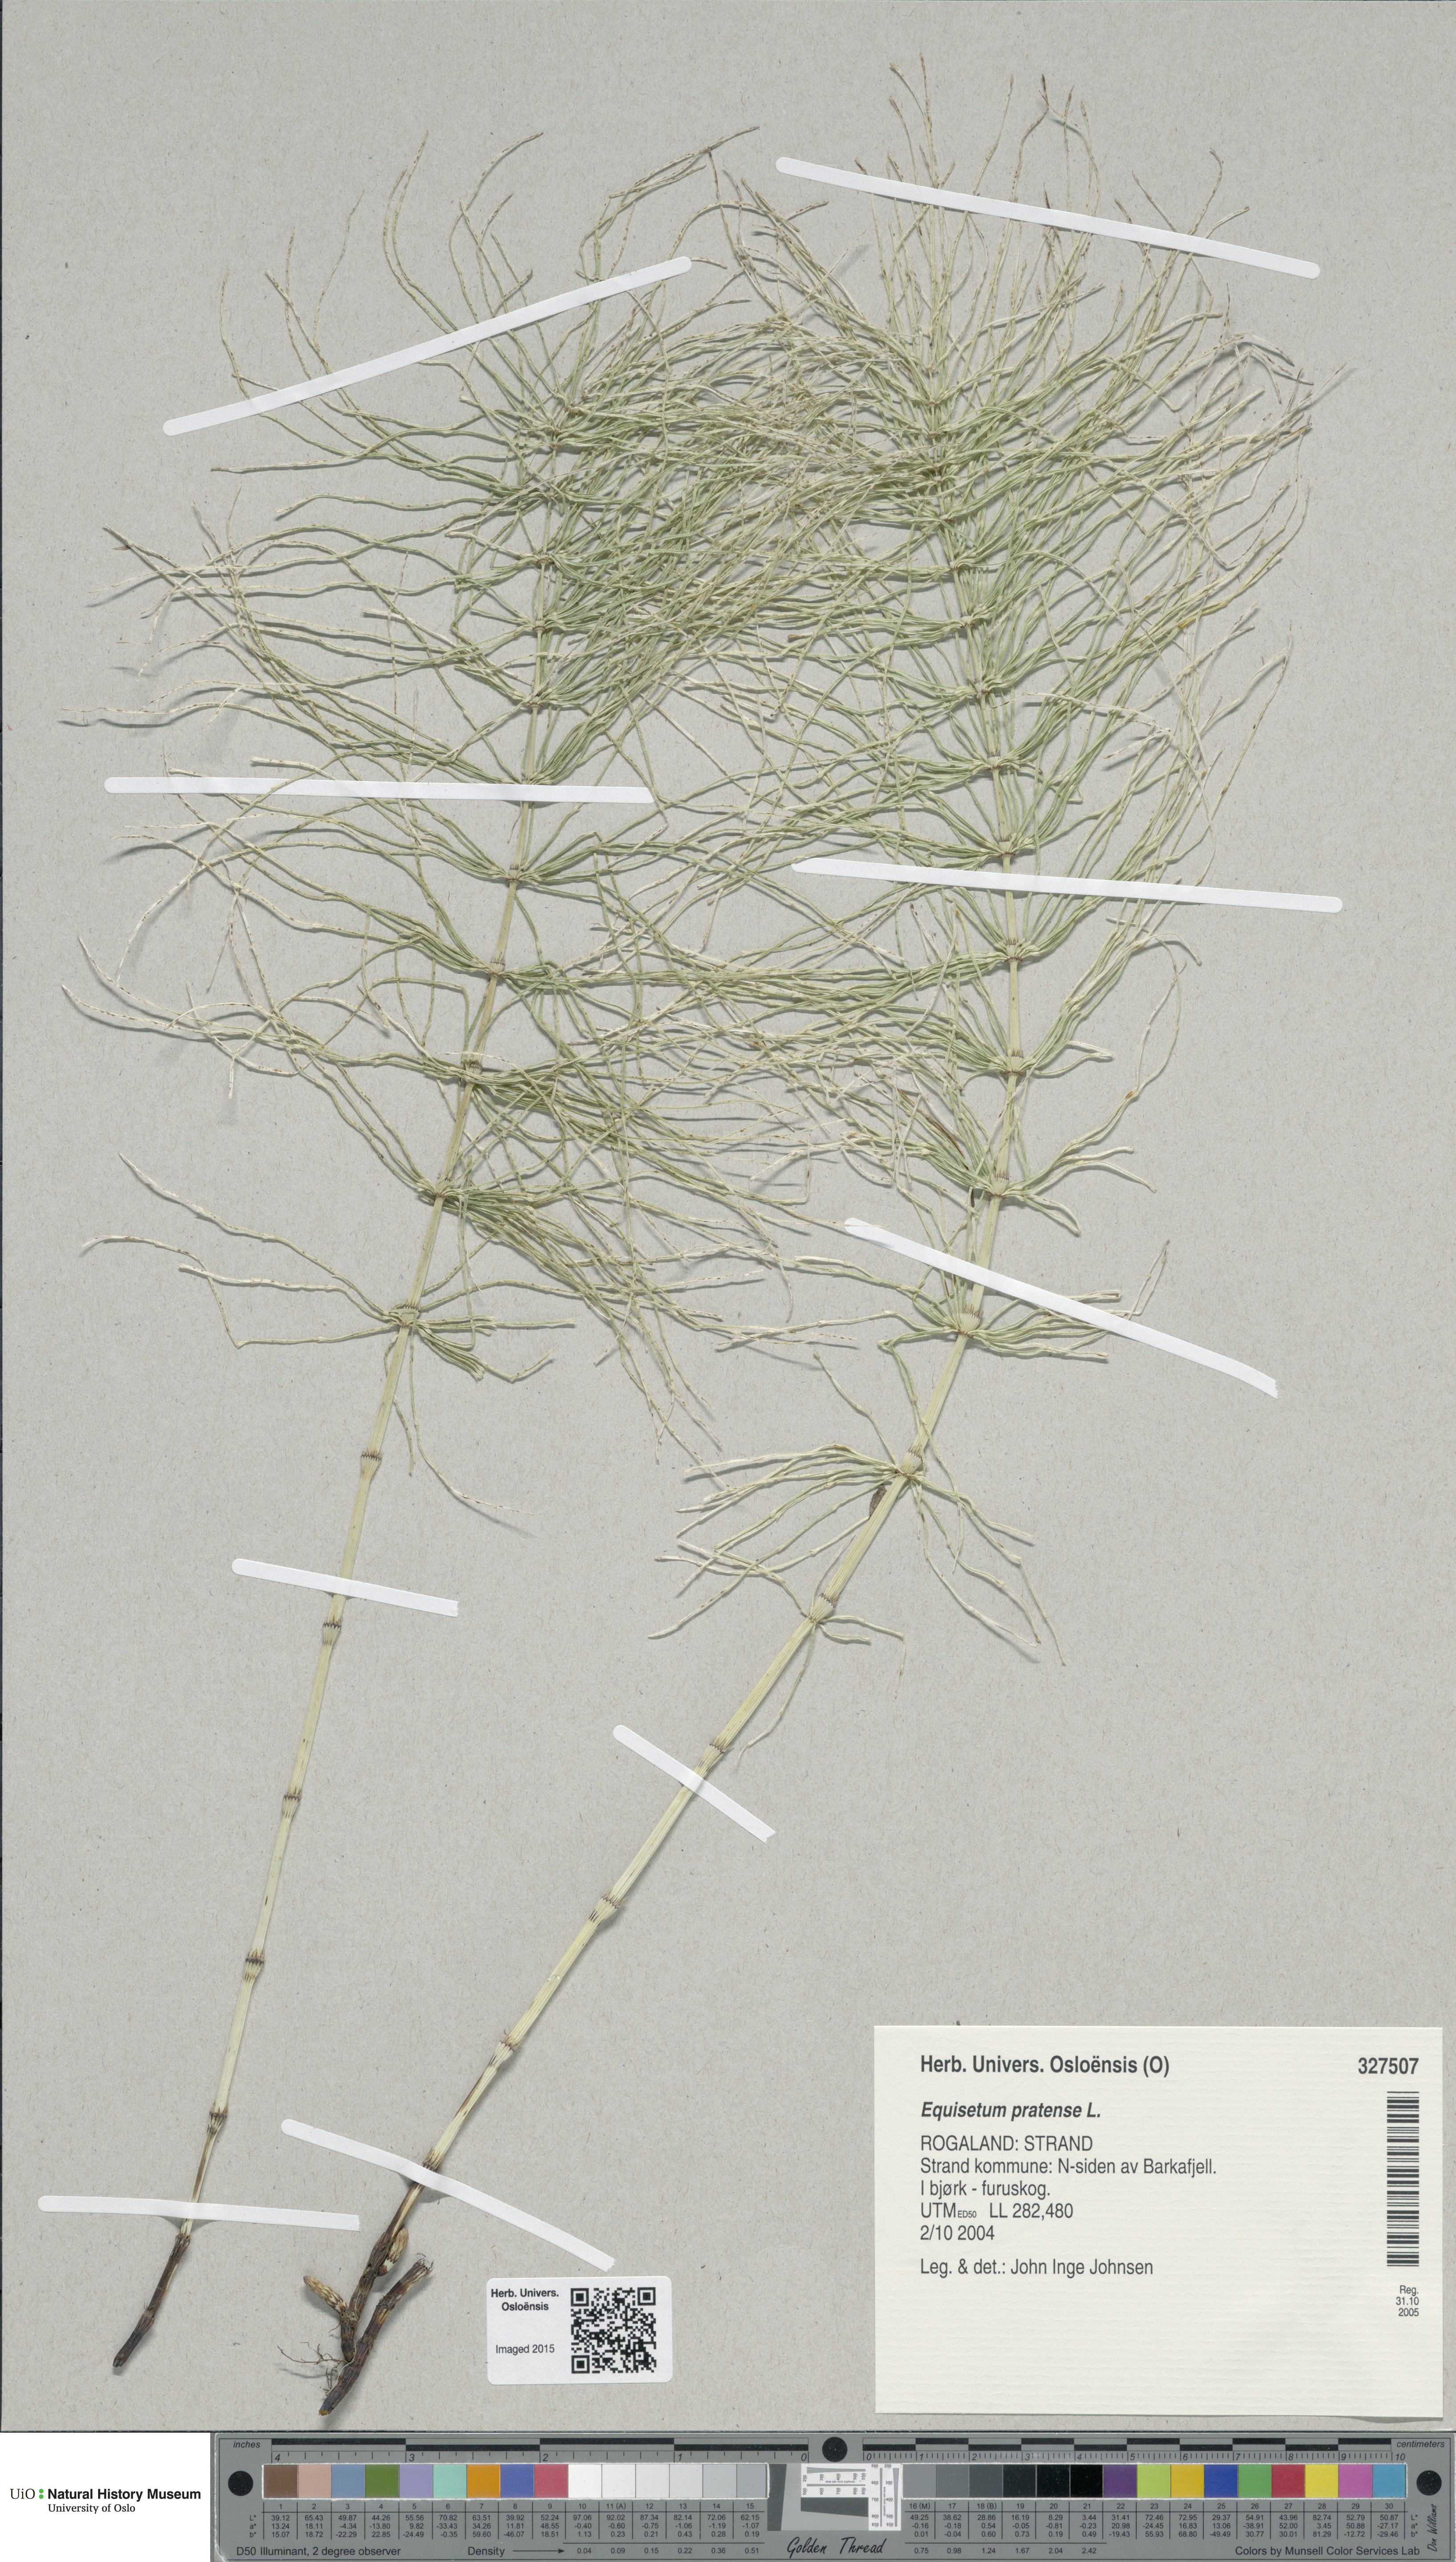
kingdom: Plantae
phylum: Tracheophyta
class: Polypodiopsida
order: Equisetales
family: Equisetaceae
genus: Equisetum
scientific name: Equisetum pratense
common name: Meadow horsetail
